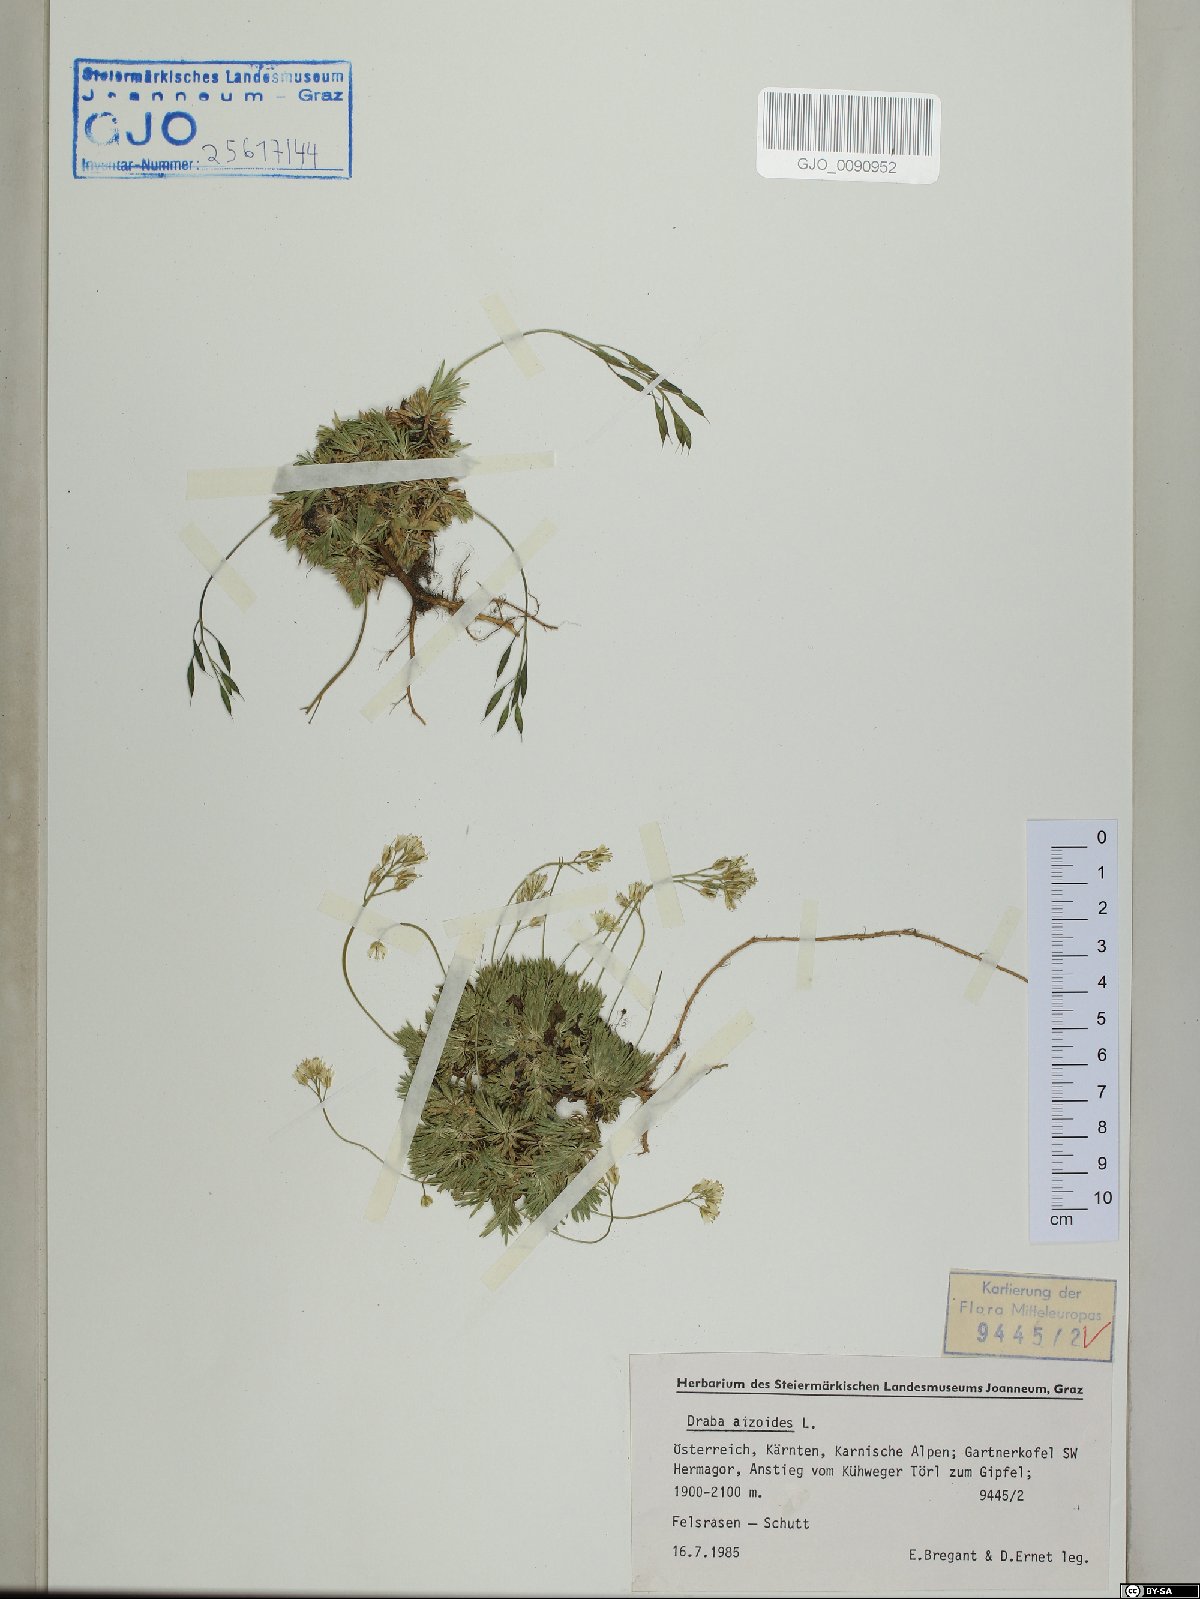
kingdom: Plantae
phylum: Tracheophyta
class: Magnoliopsida
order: Brassicales
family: Brassicaceae
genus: Draba
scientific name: Draba aizoides
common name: Yellow whitlowgrass
